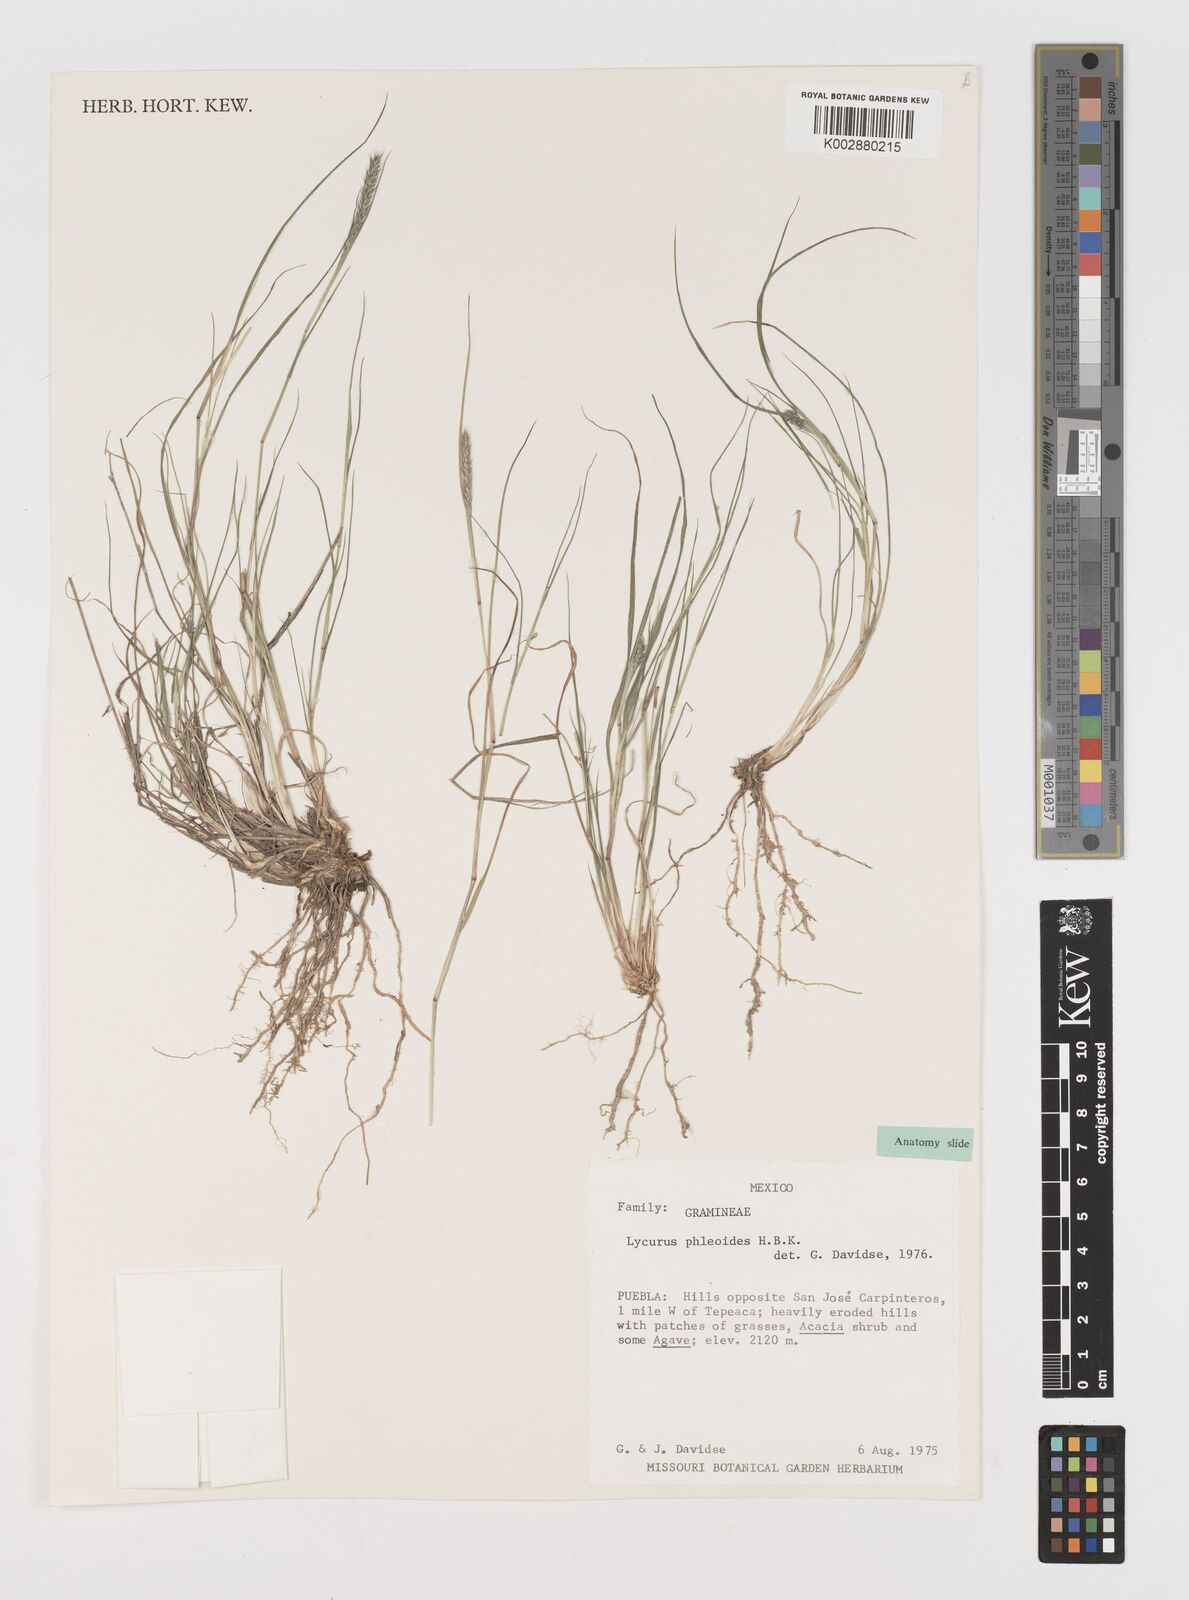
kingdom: Plantae
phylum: Tracheophyta
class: Liliopsida
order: Poales
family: Poaceae
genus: Muhlenbergia
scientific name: Muhlenbergia phleoides
